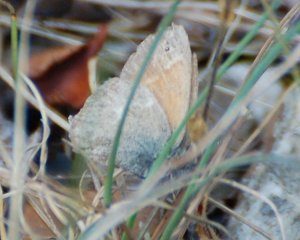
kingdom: Animalia
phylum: Arthropoda
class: Insecta
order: Lepidoptera
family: Nymphalidae
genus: Coenonympha
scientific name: Coenonympha tullia
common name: Large Heath
